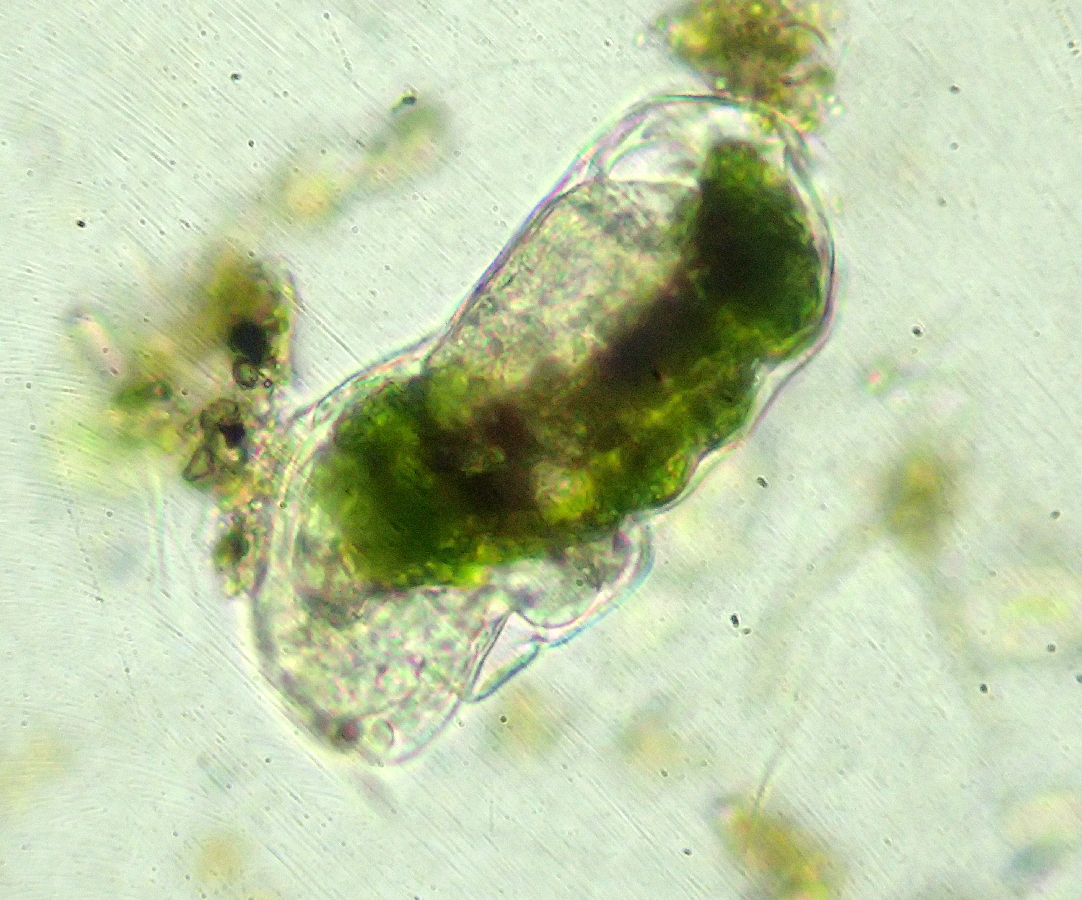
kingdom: Animalia
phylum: Rotifera
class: Eurotatoria
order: Ploima
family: Ituridae
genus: Itura
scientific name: Itura aurita
